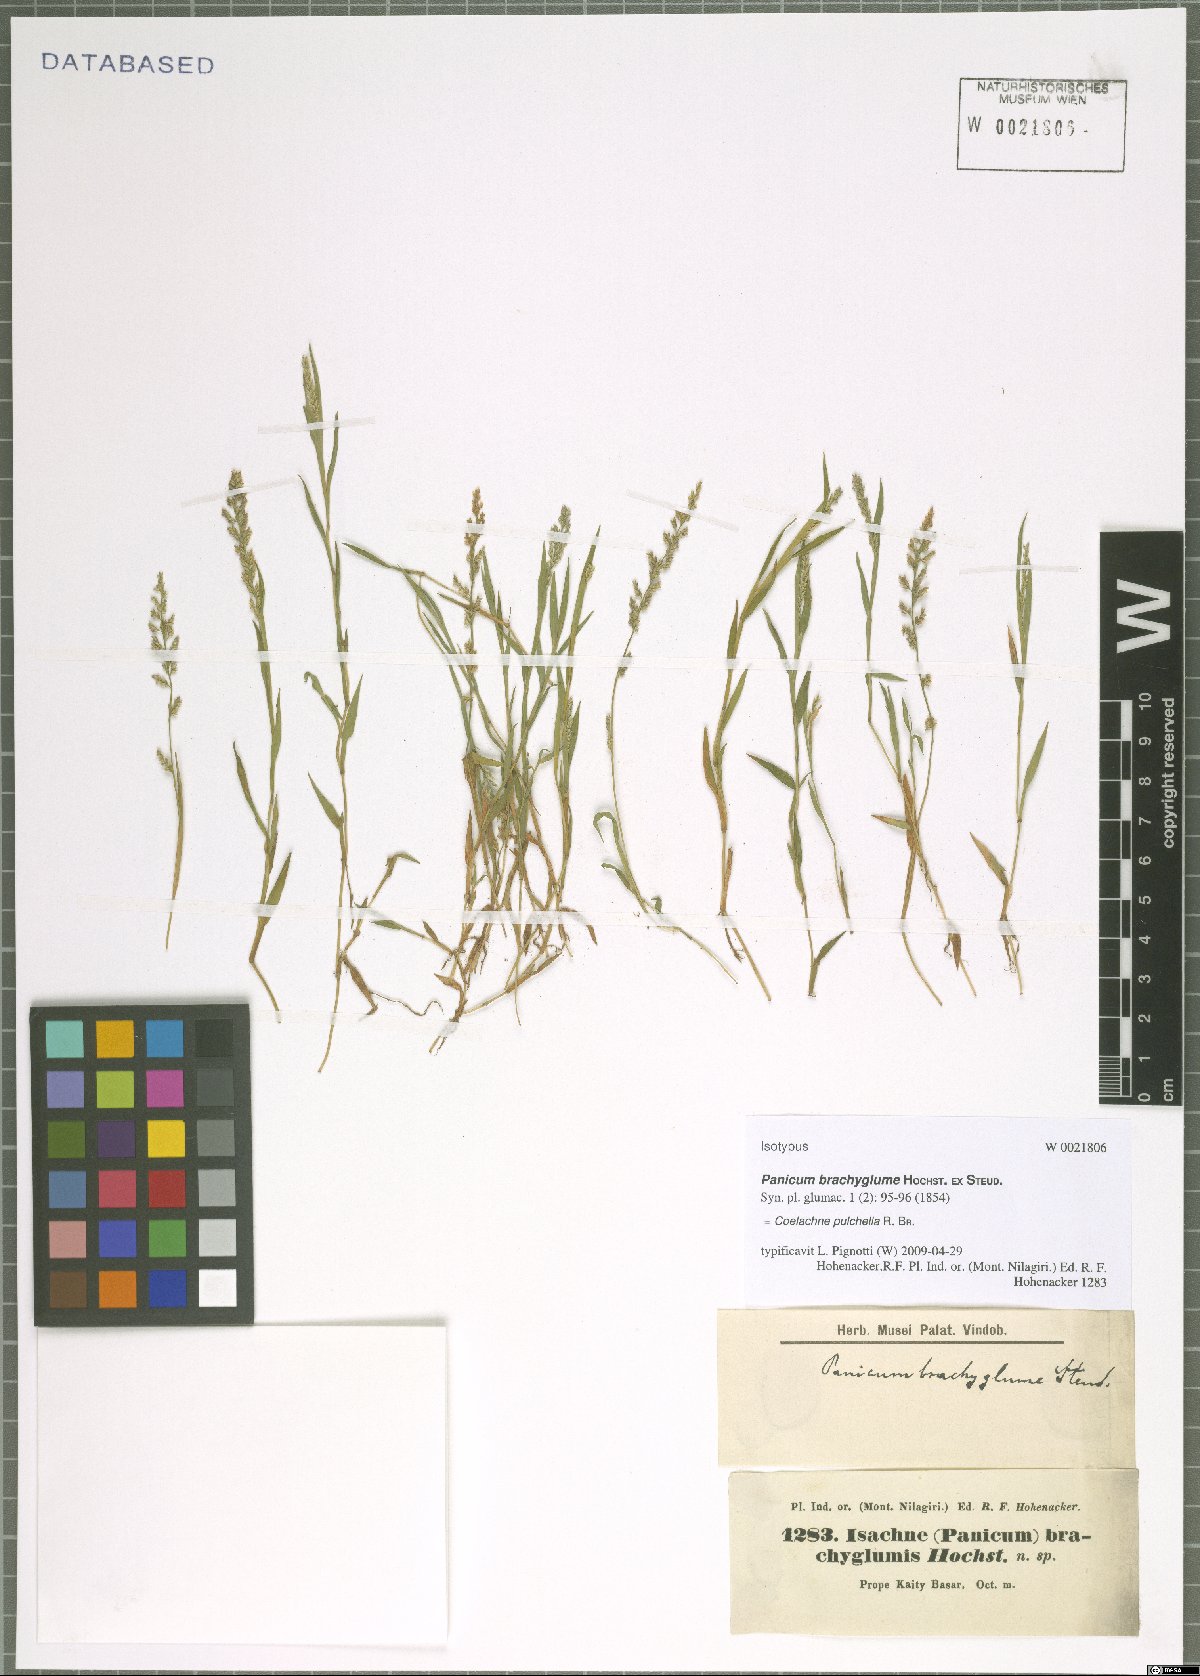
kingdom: Plantae
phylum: Tracheophyta
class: Liliopsida
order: Poales
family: Poaceae
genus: Coelachne
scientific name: Coelachne pulchella
